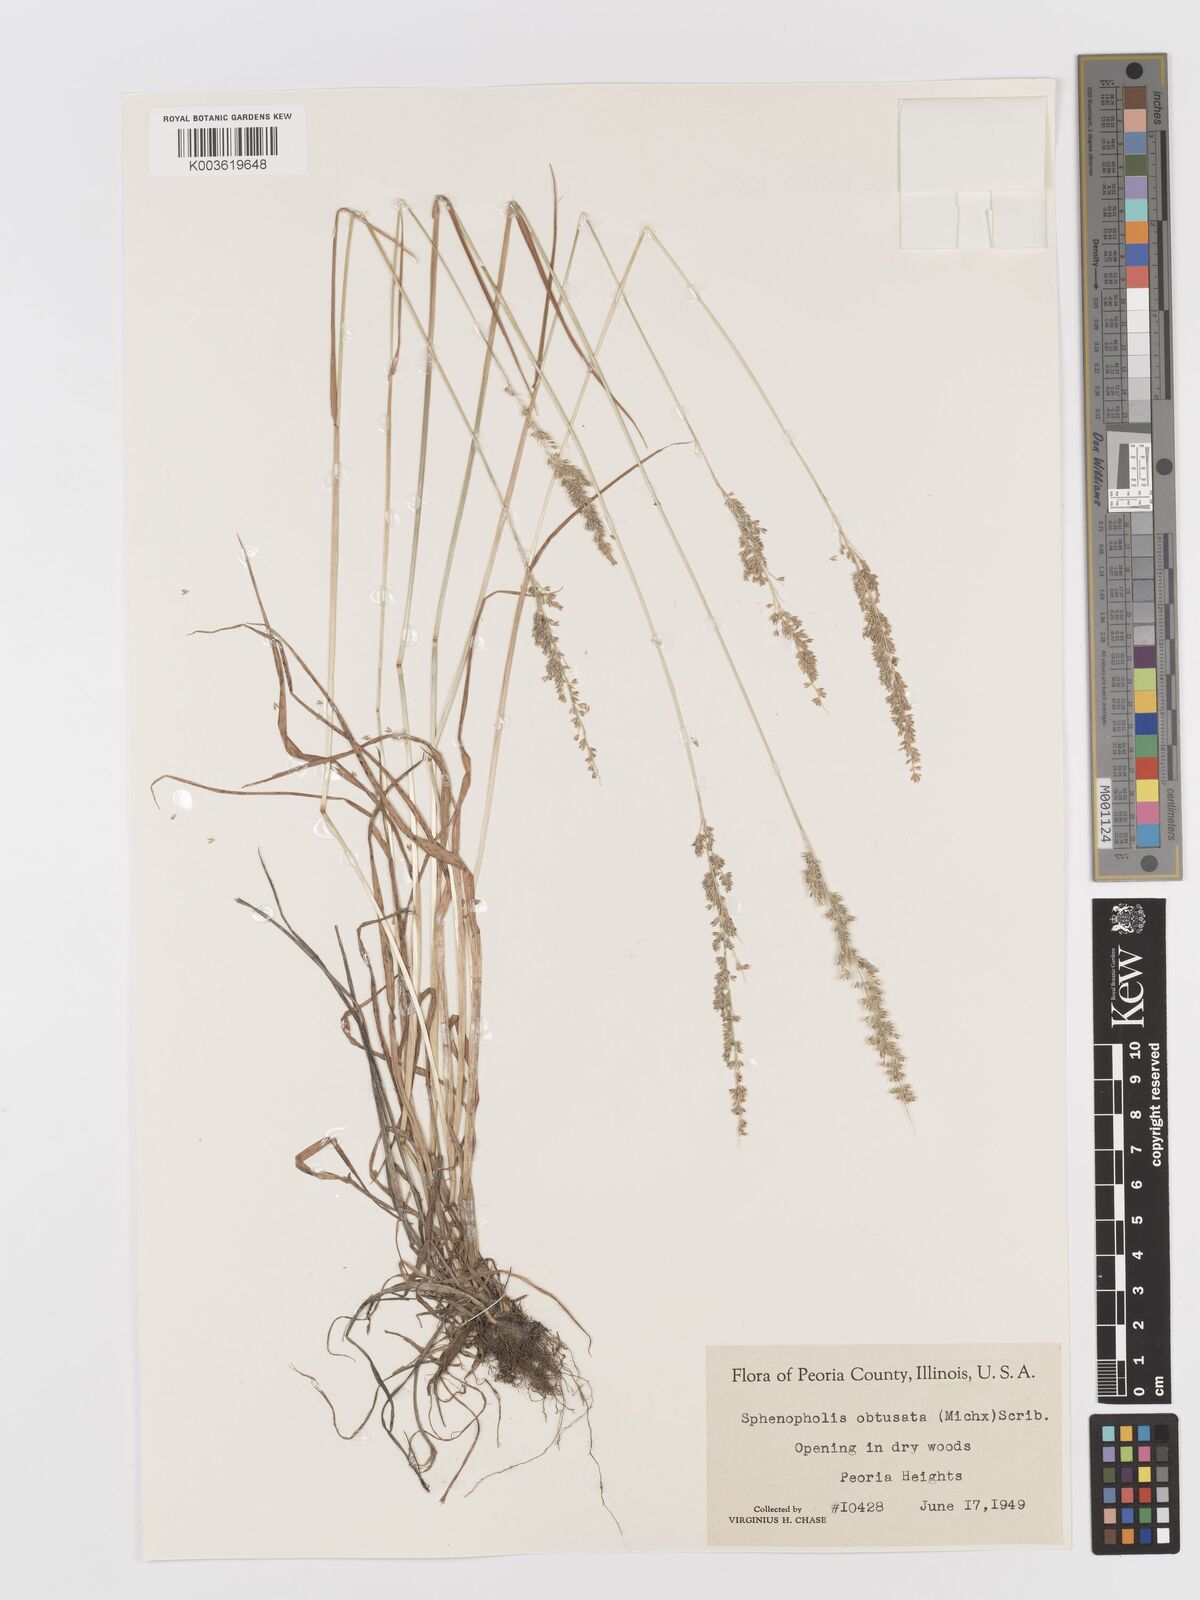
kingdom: Plantae
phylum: Tracheophyta
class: Liliopsida
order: Poales
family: Poaceae
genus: Sphenopholis
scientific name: Sphenopholis obtusata
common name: Prairie grass
